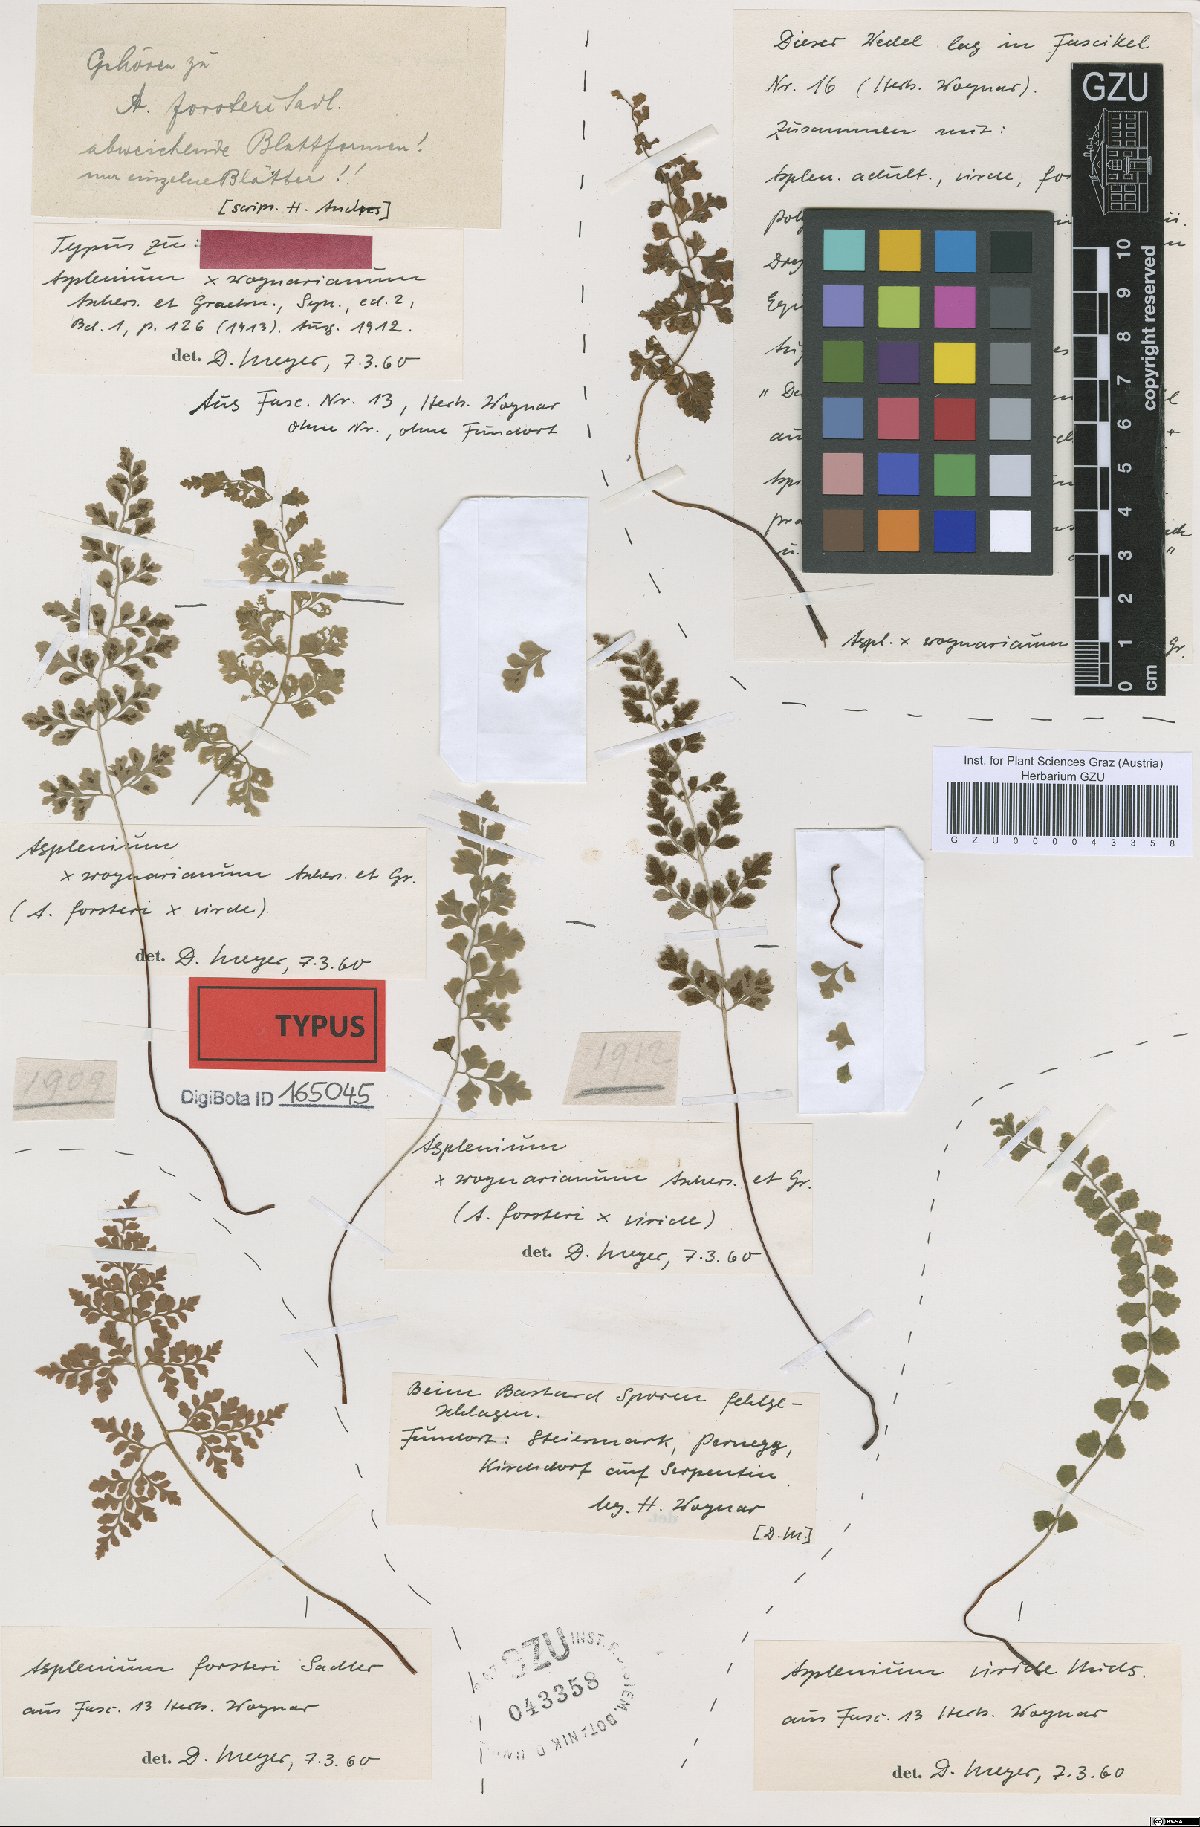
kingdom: Plantae
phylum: Tracheophyta
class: Polypodiopsida
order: Polypodiales
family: Aspleniaceae
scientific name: Aspleniaceae
